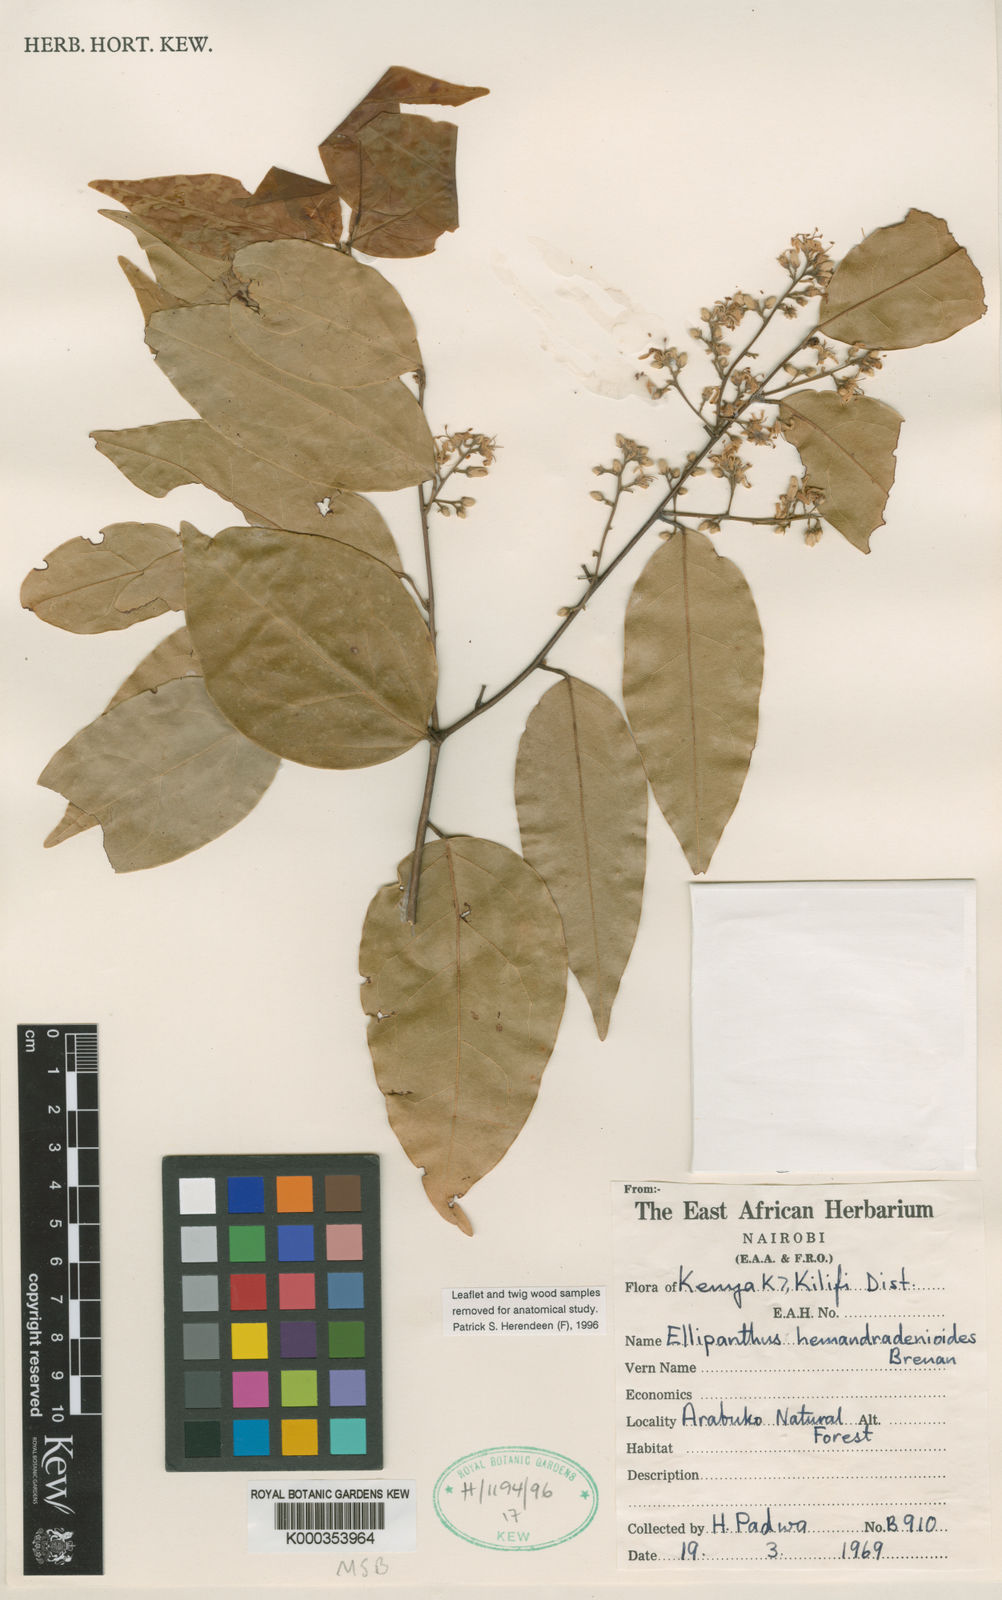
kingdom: Plantae
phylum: Tracheophyta
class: Magnoliopsida
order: Oxalidales
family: Connaraceae
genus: Ellipanthus
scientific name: Ellipanthus madagascariensis
